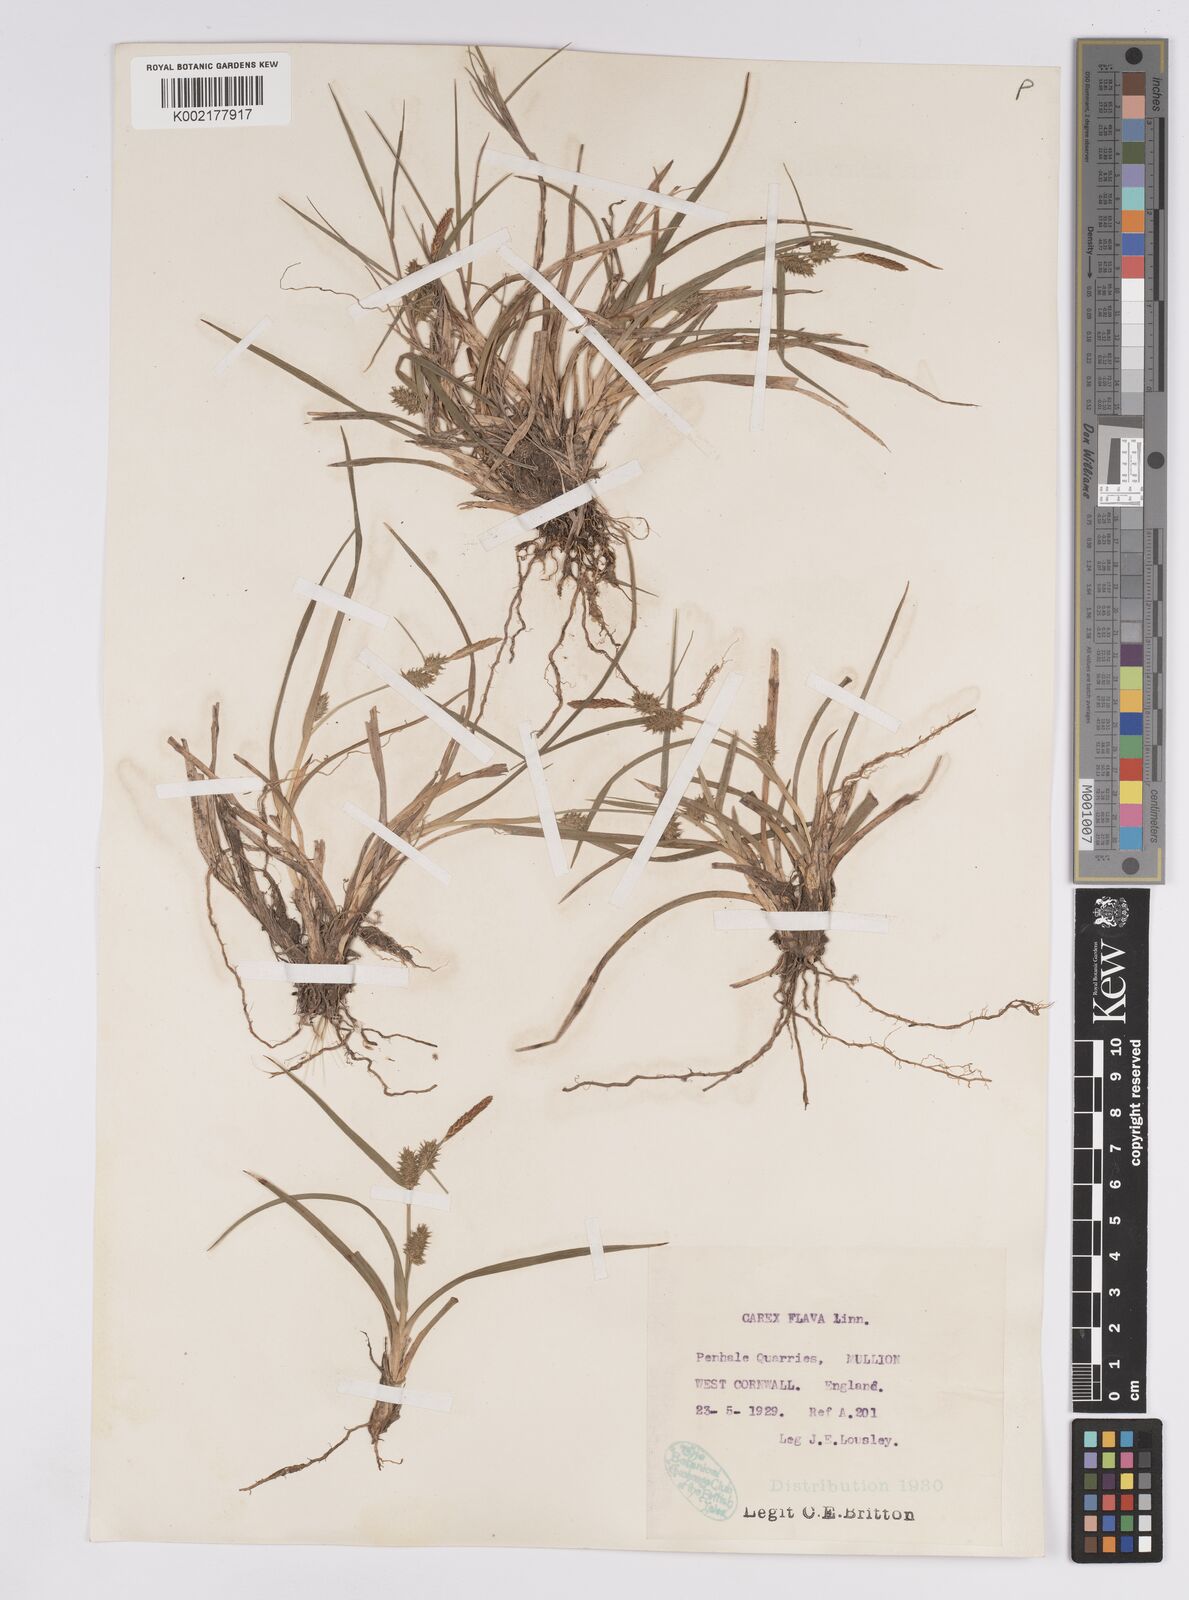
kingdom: Plantae
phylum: Tracheophyta
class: Liliopsida
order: Poales
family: Cyperaceae
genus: Carex
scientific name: Carex demissa
